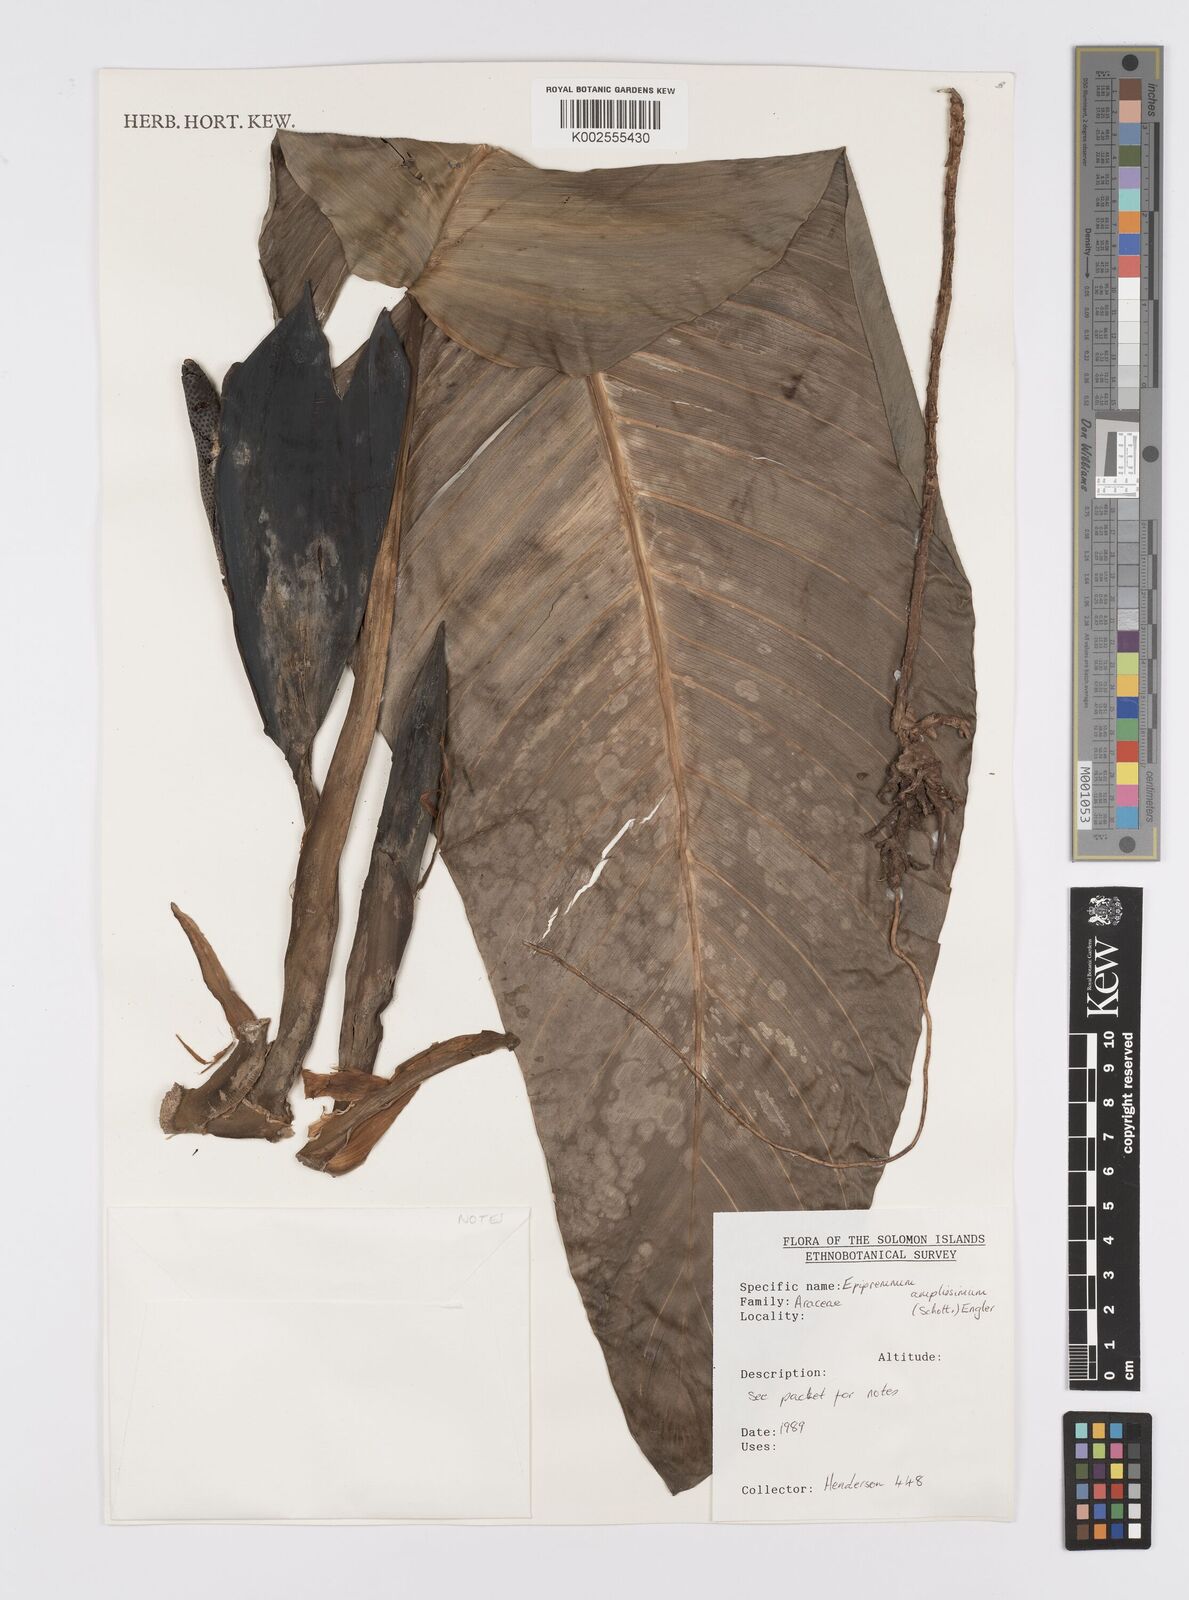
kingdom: Plantae
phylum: Tracheophyta
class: Liliopsida
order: Alismatales
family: Araceae
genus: Epipremnum
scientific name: Epipremnum amplissimum
